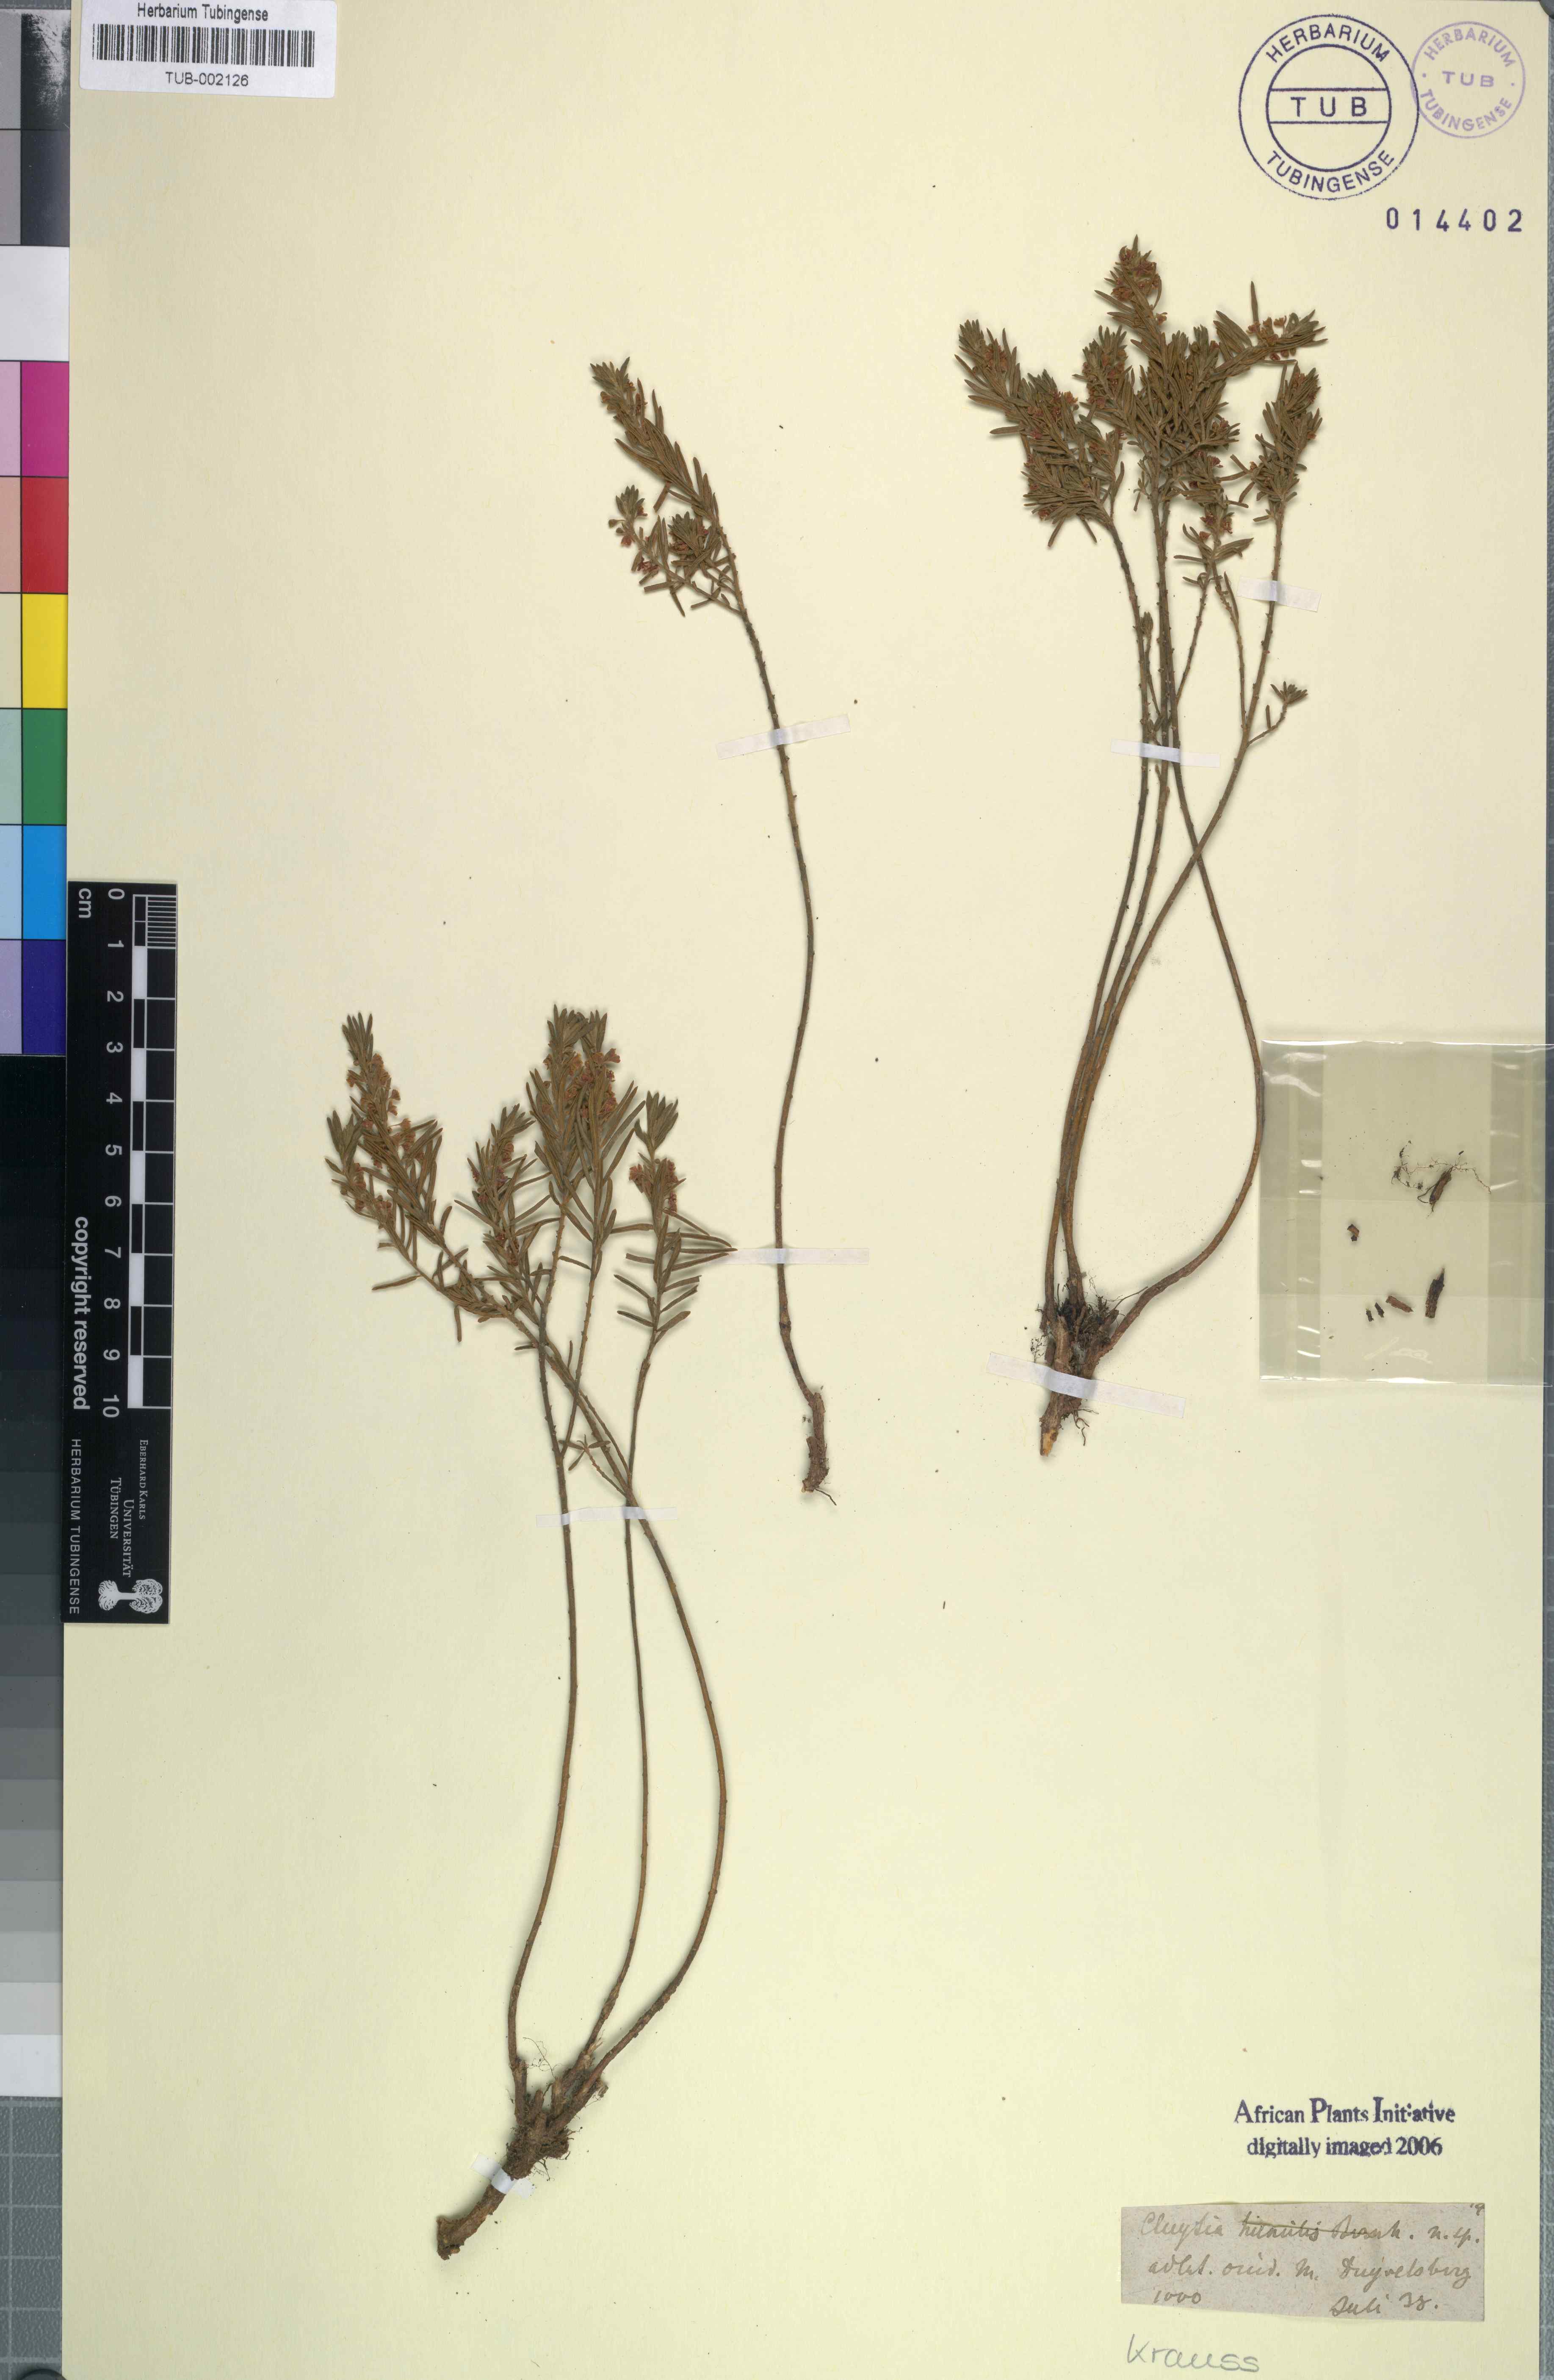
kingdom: Plantae
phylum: Tracheophyta
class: Magnoliopsida
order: Malpighiales
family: Peraceae
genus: Clutia
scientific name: Clutia pubescens
